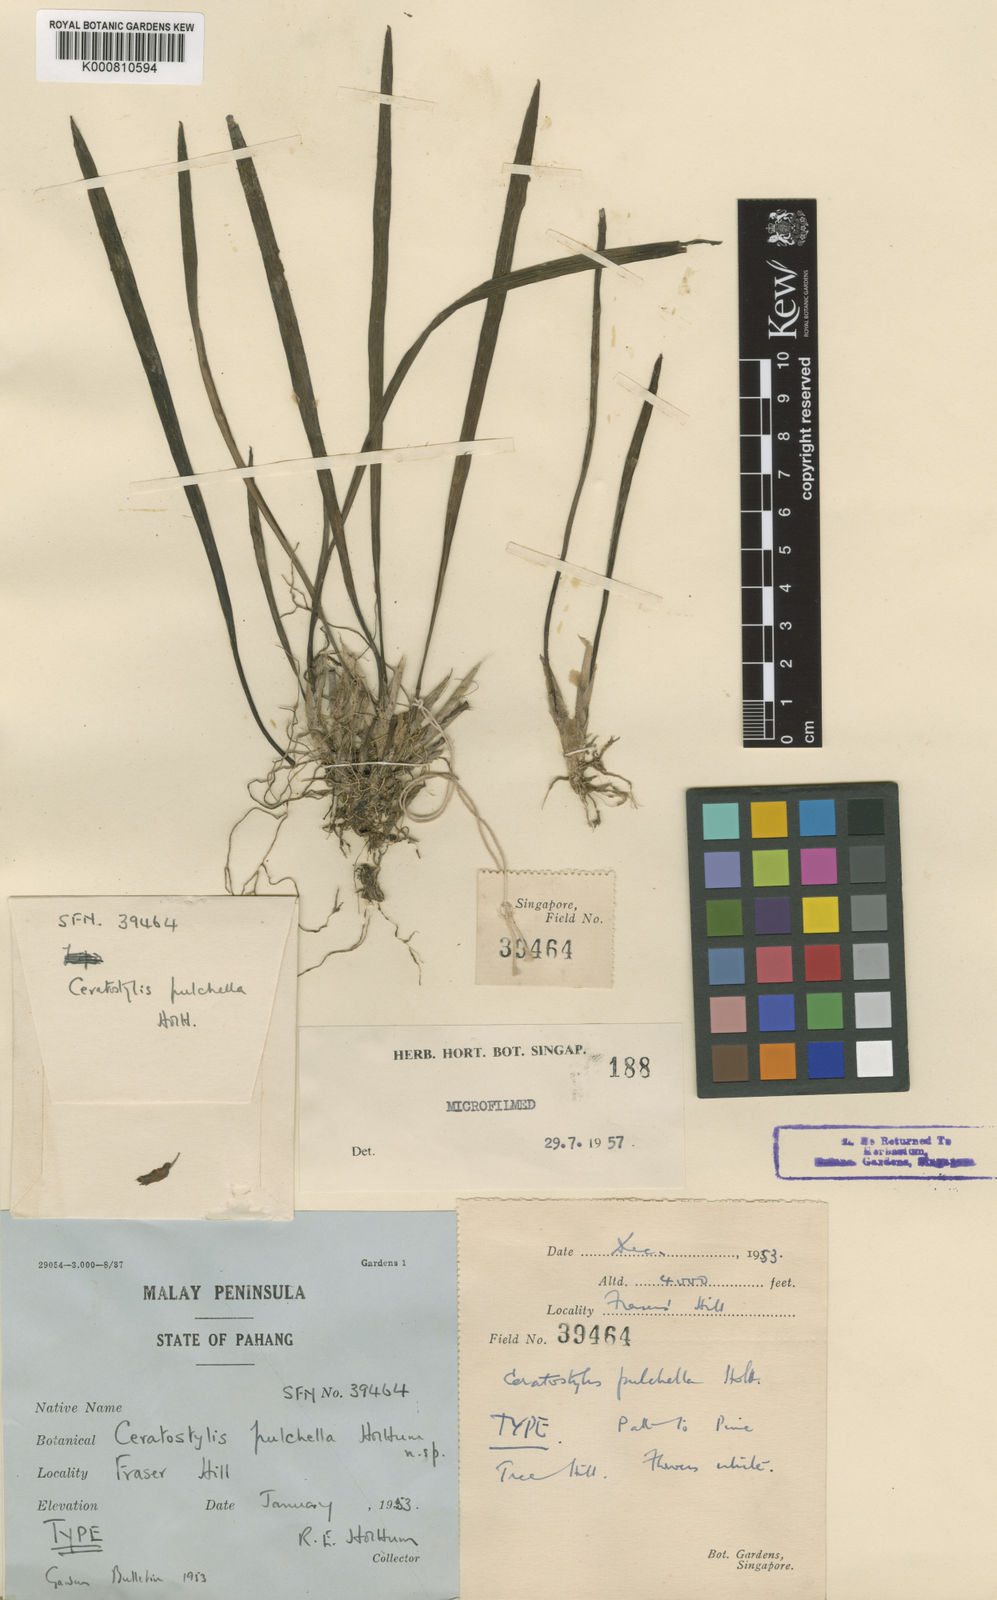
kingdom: Plantae
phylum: Tracheophyta
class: Liliopsida
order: Asparagales
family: Orchidaceae
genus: Ceratostylis
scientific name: Ceratostylis pulchella
